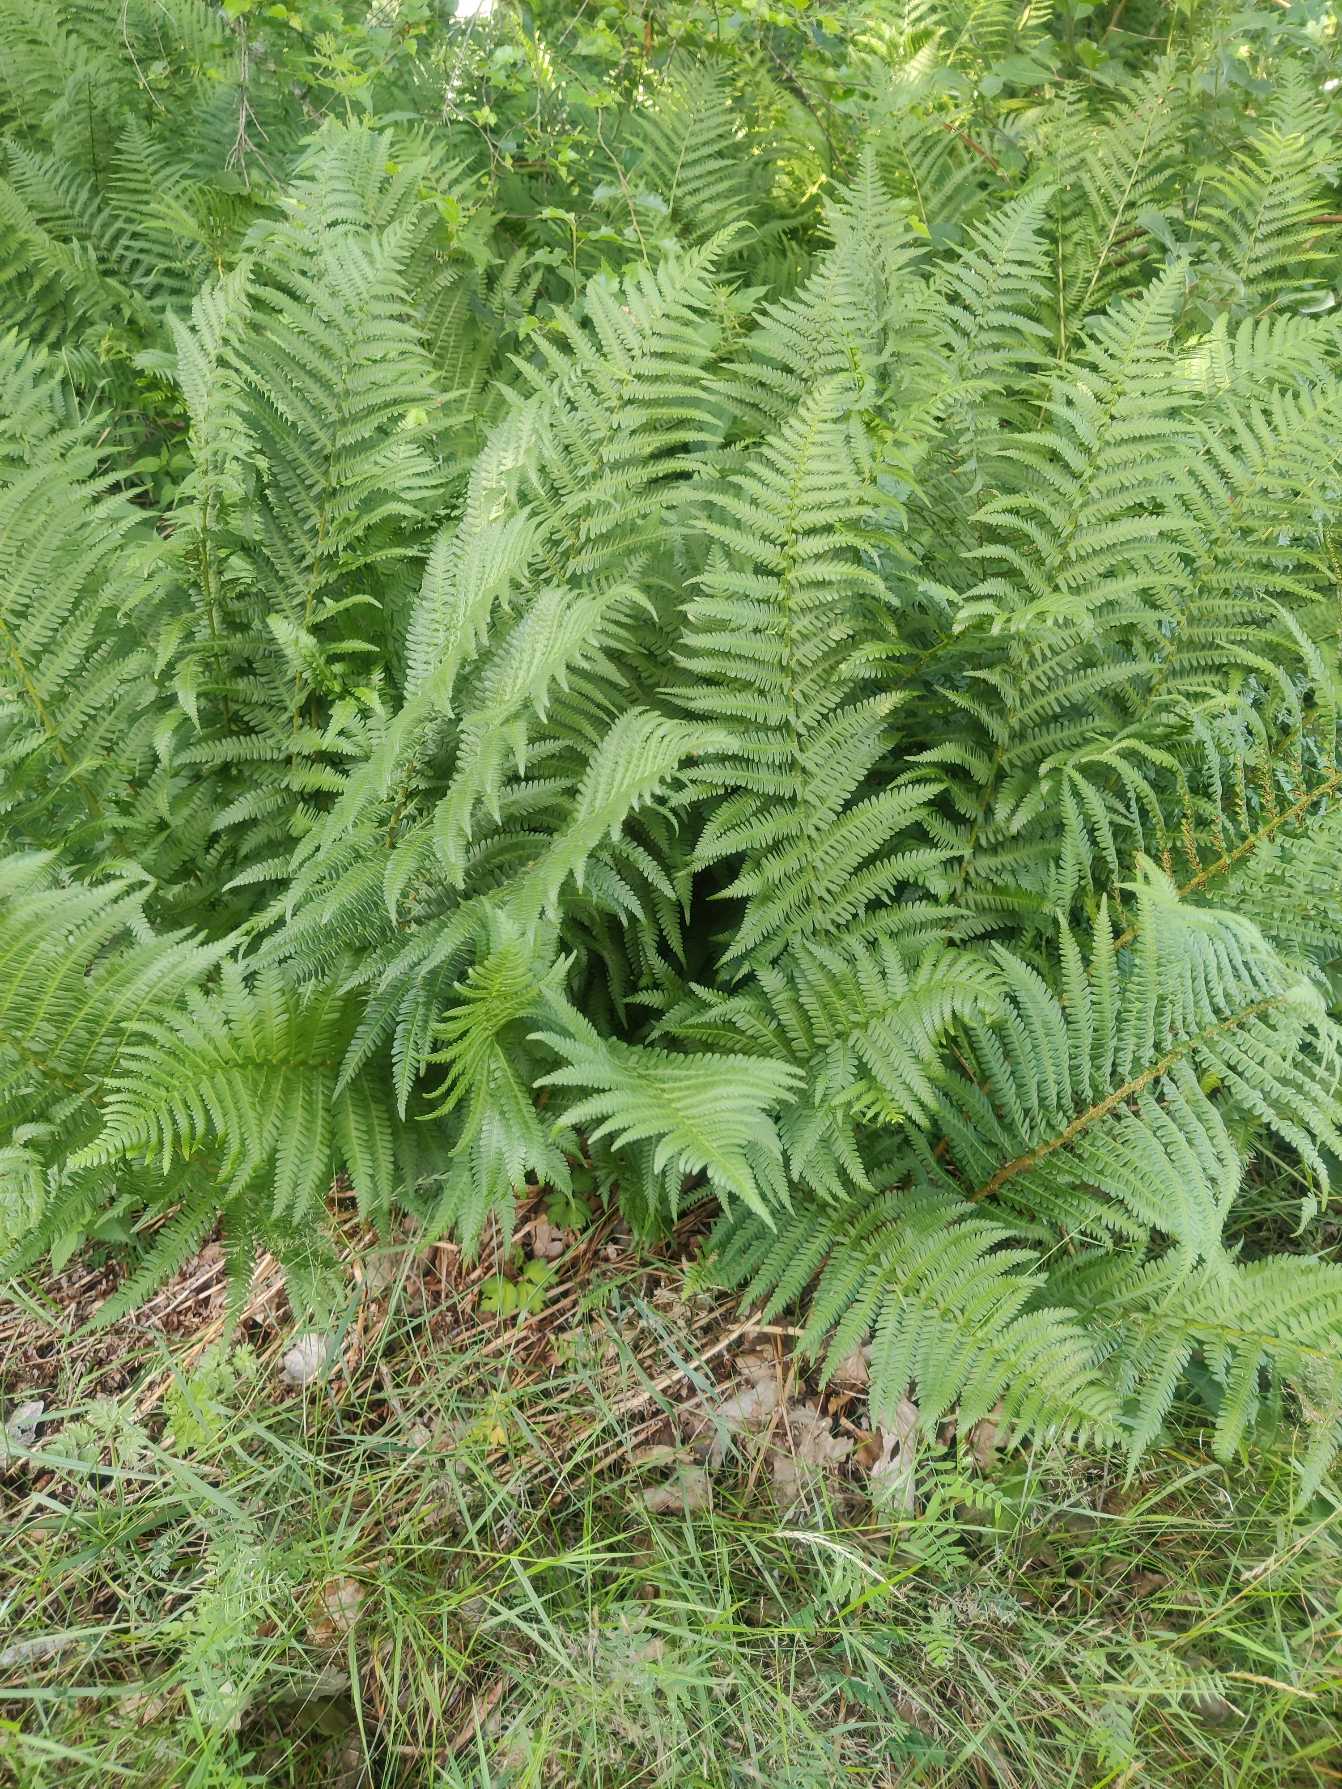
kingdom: Plantae
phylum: Tracheophyta
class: Polypodiopsida
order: Polypodiales
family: Dryopteridaceae
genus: Dryopteris
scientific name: Dryopteris filix-mas
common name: Almindelig mangeløv
